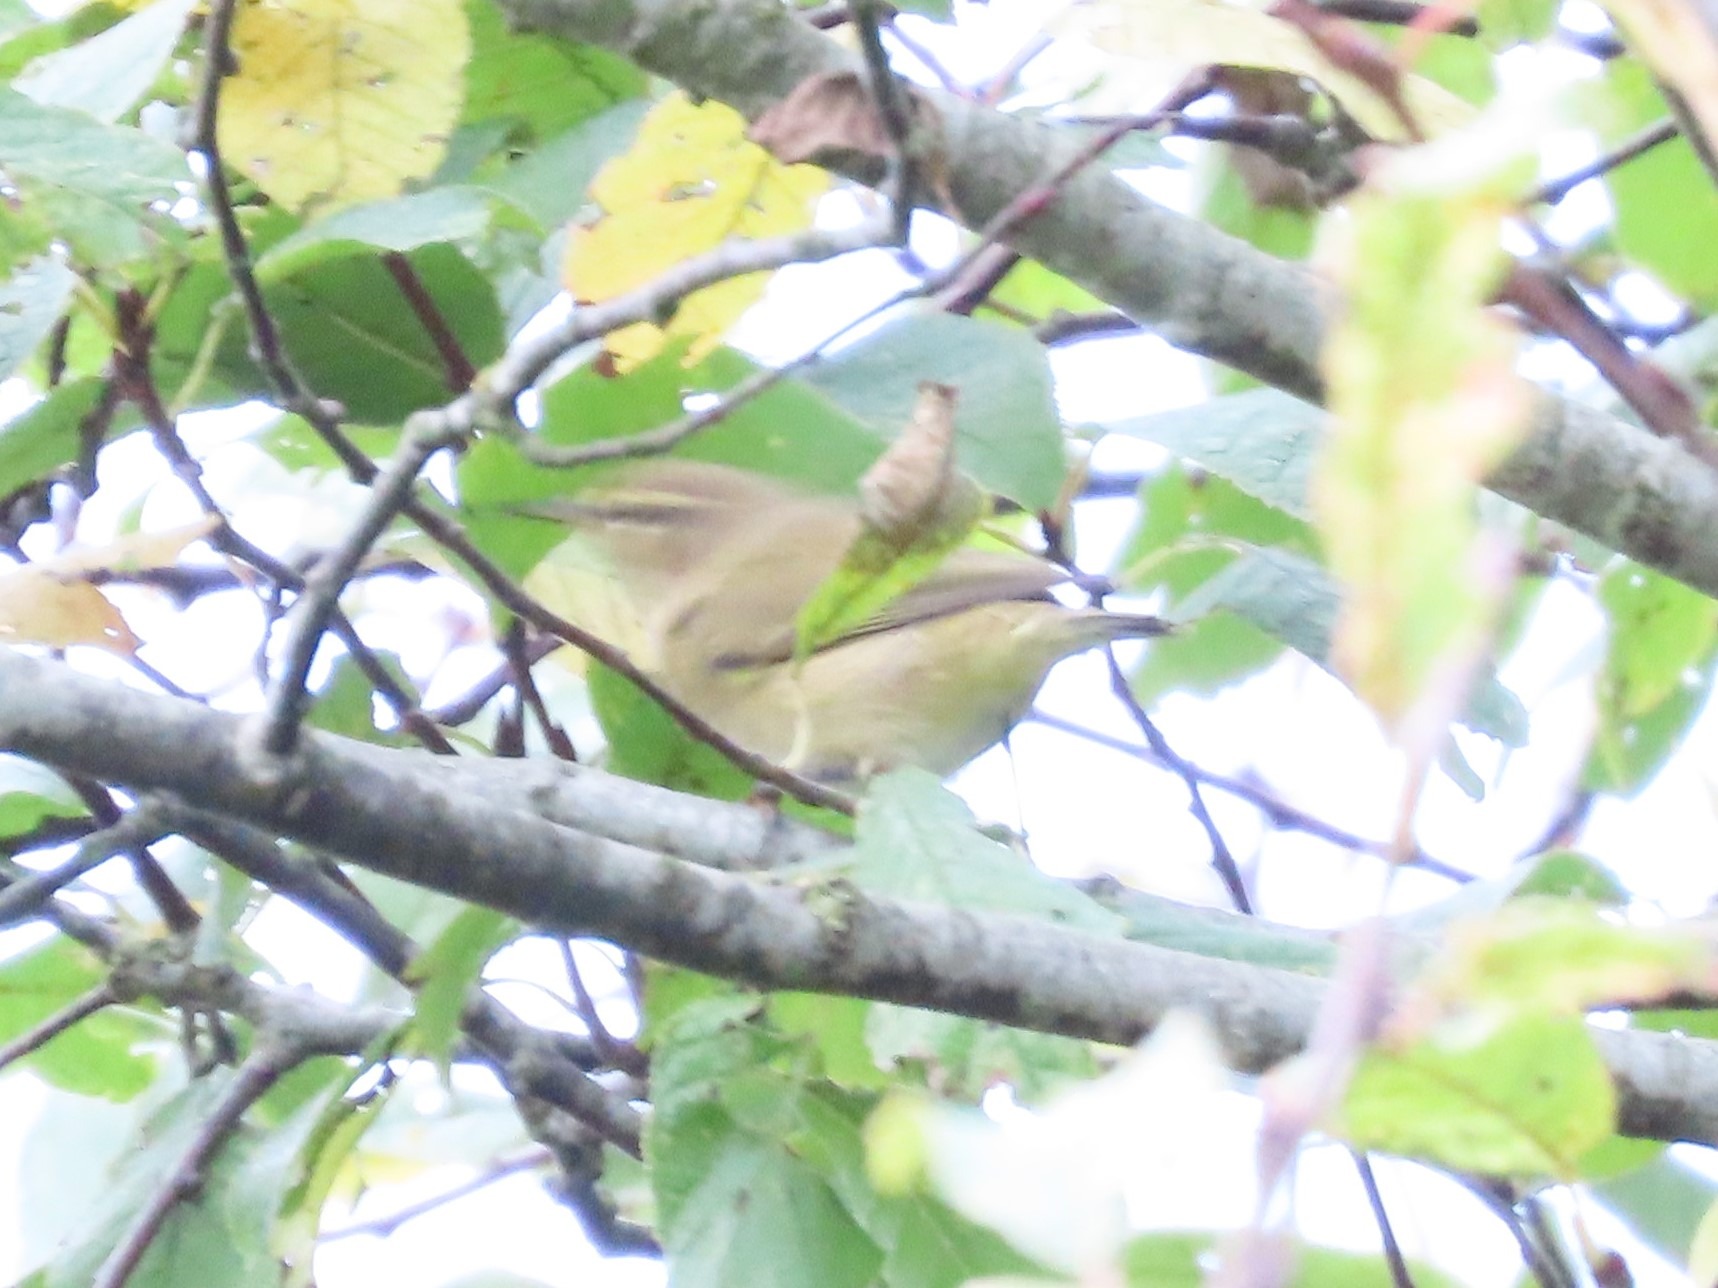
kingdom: Animalia
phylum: Chordata
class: Aves
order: Passeriformes
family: Phylloscopidae
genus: Phylloscopus
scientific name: Phylloscopus collybita
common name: Gransanger
